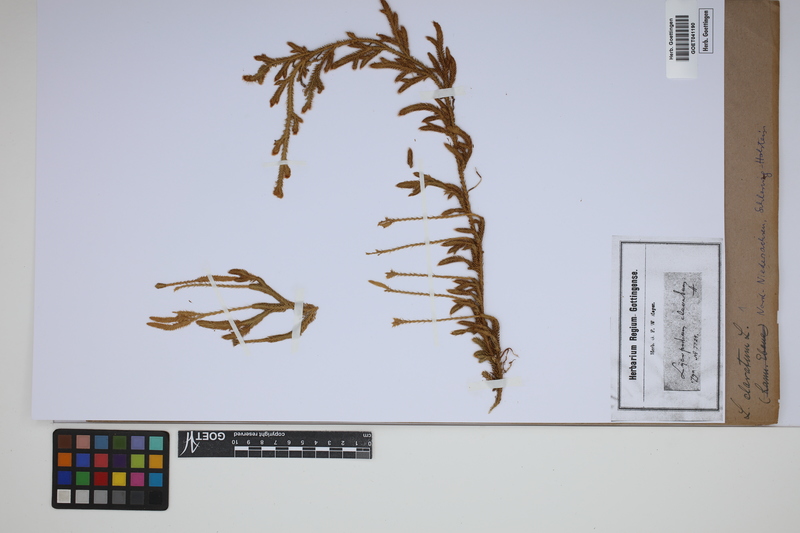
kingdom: Plantae
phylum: Tracheophyta
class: Lycopodiopsida
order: Lycopodiales
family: Lycopodiaceae
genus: Lycopodium
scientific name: Lycopodium clavatum
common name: Stag's-horn clubmoss
